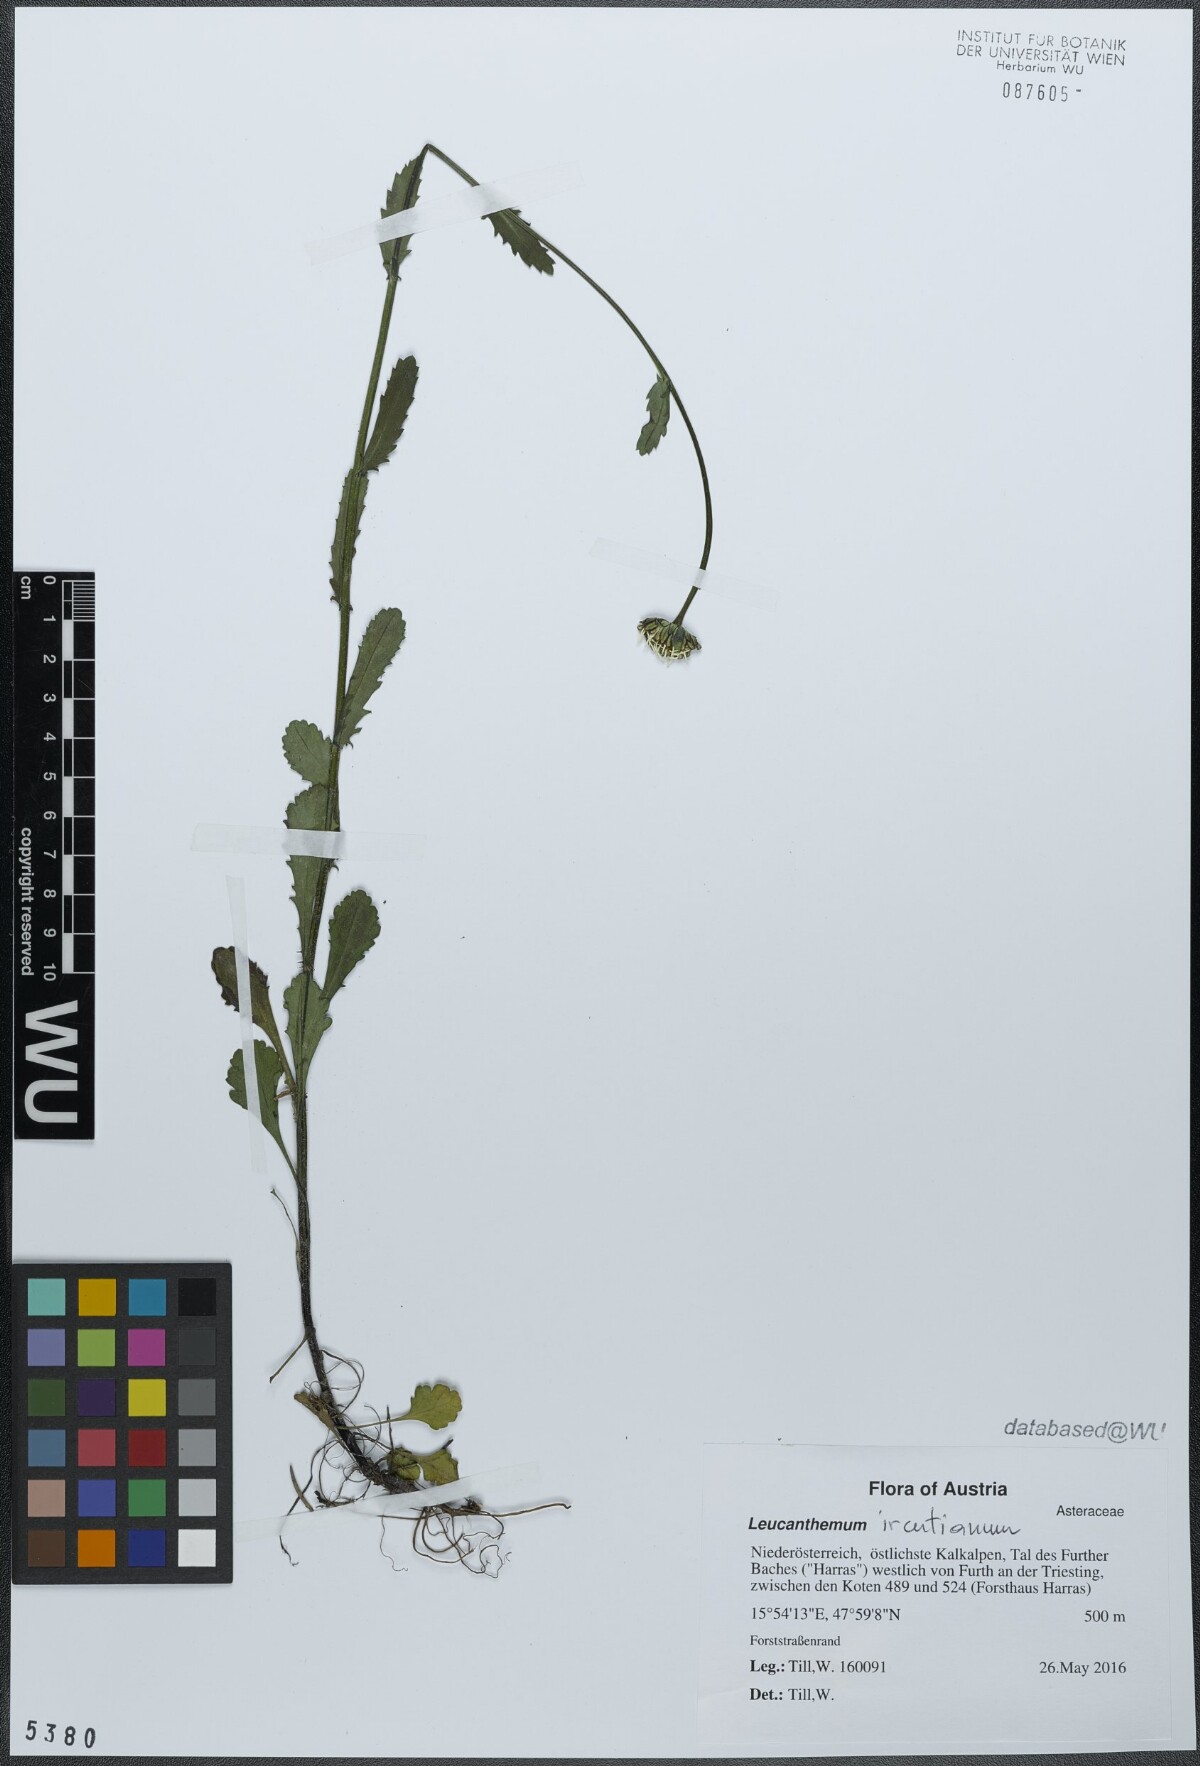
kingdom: Plantae
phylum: Tracheophyta
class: Magnoliopsida
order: Asterales
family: Asteraceae
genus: Leucanthemum
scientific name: Leucanthemum ircutianum
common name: Daisy
